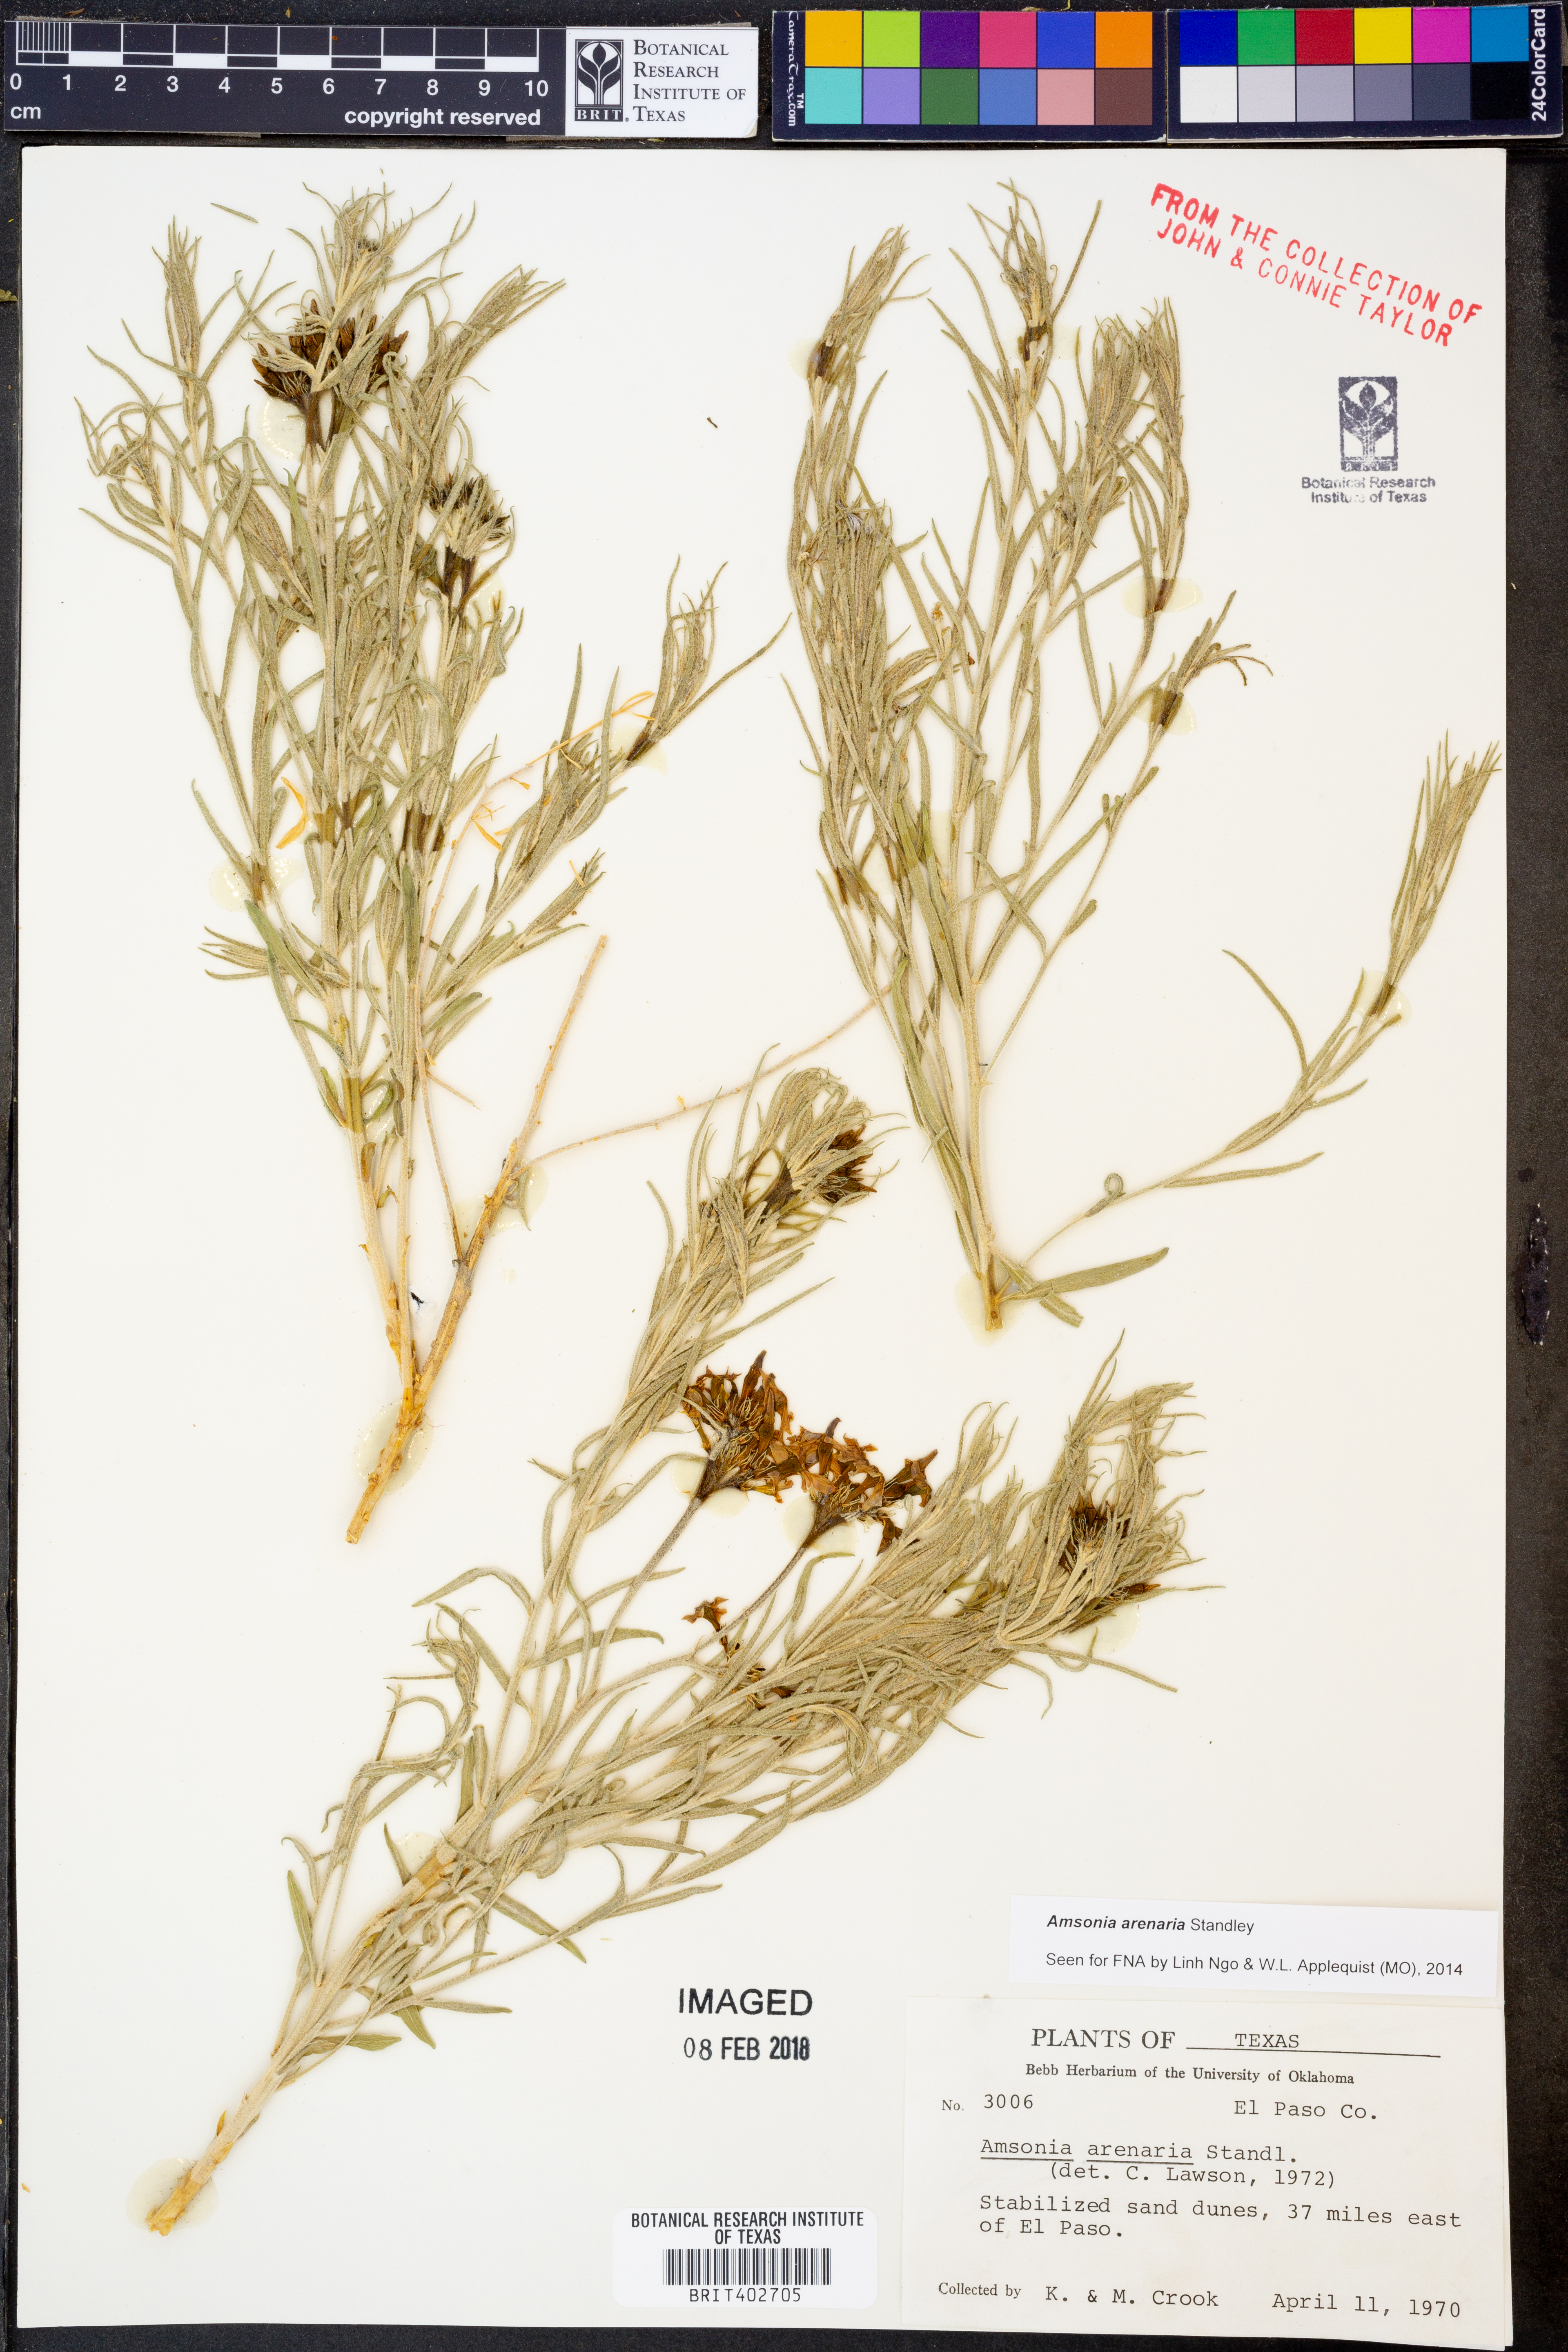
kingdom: Plantae
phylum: Tracheophyta
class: Magnoliopsida
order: Gentianales
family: Apocynaceae
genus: Amsonia
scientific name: Amsonia tomentosa
